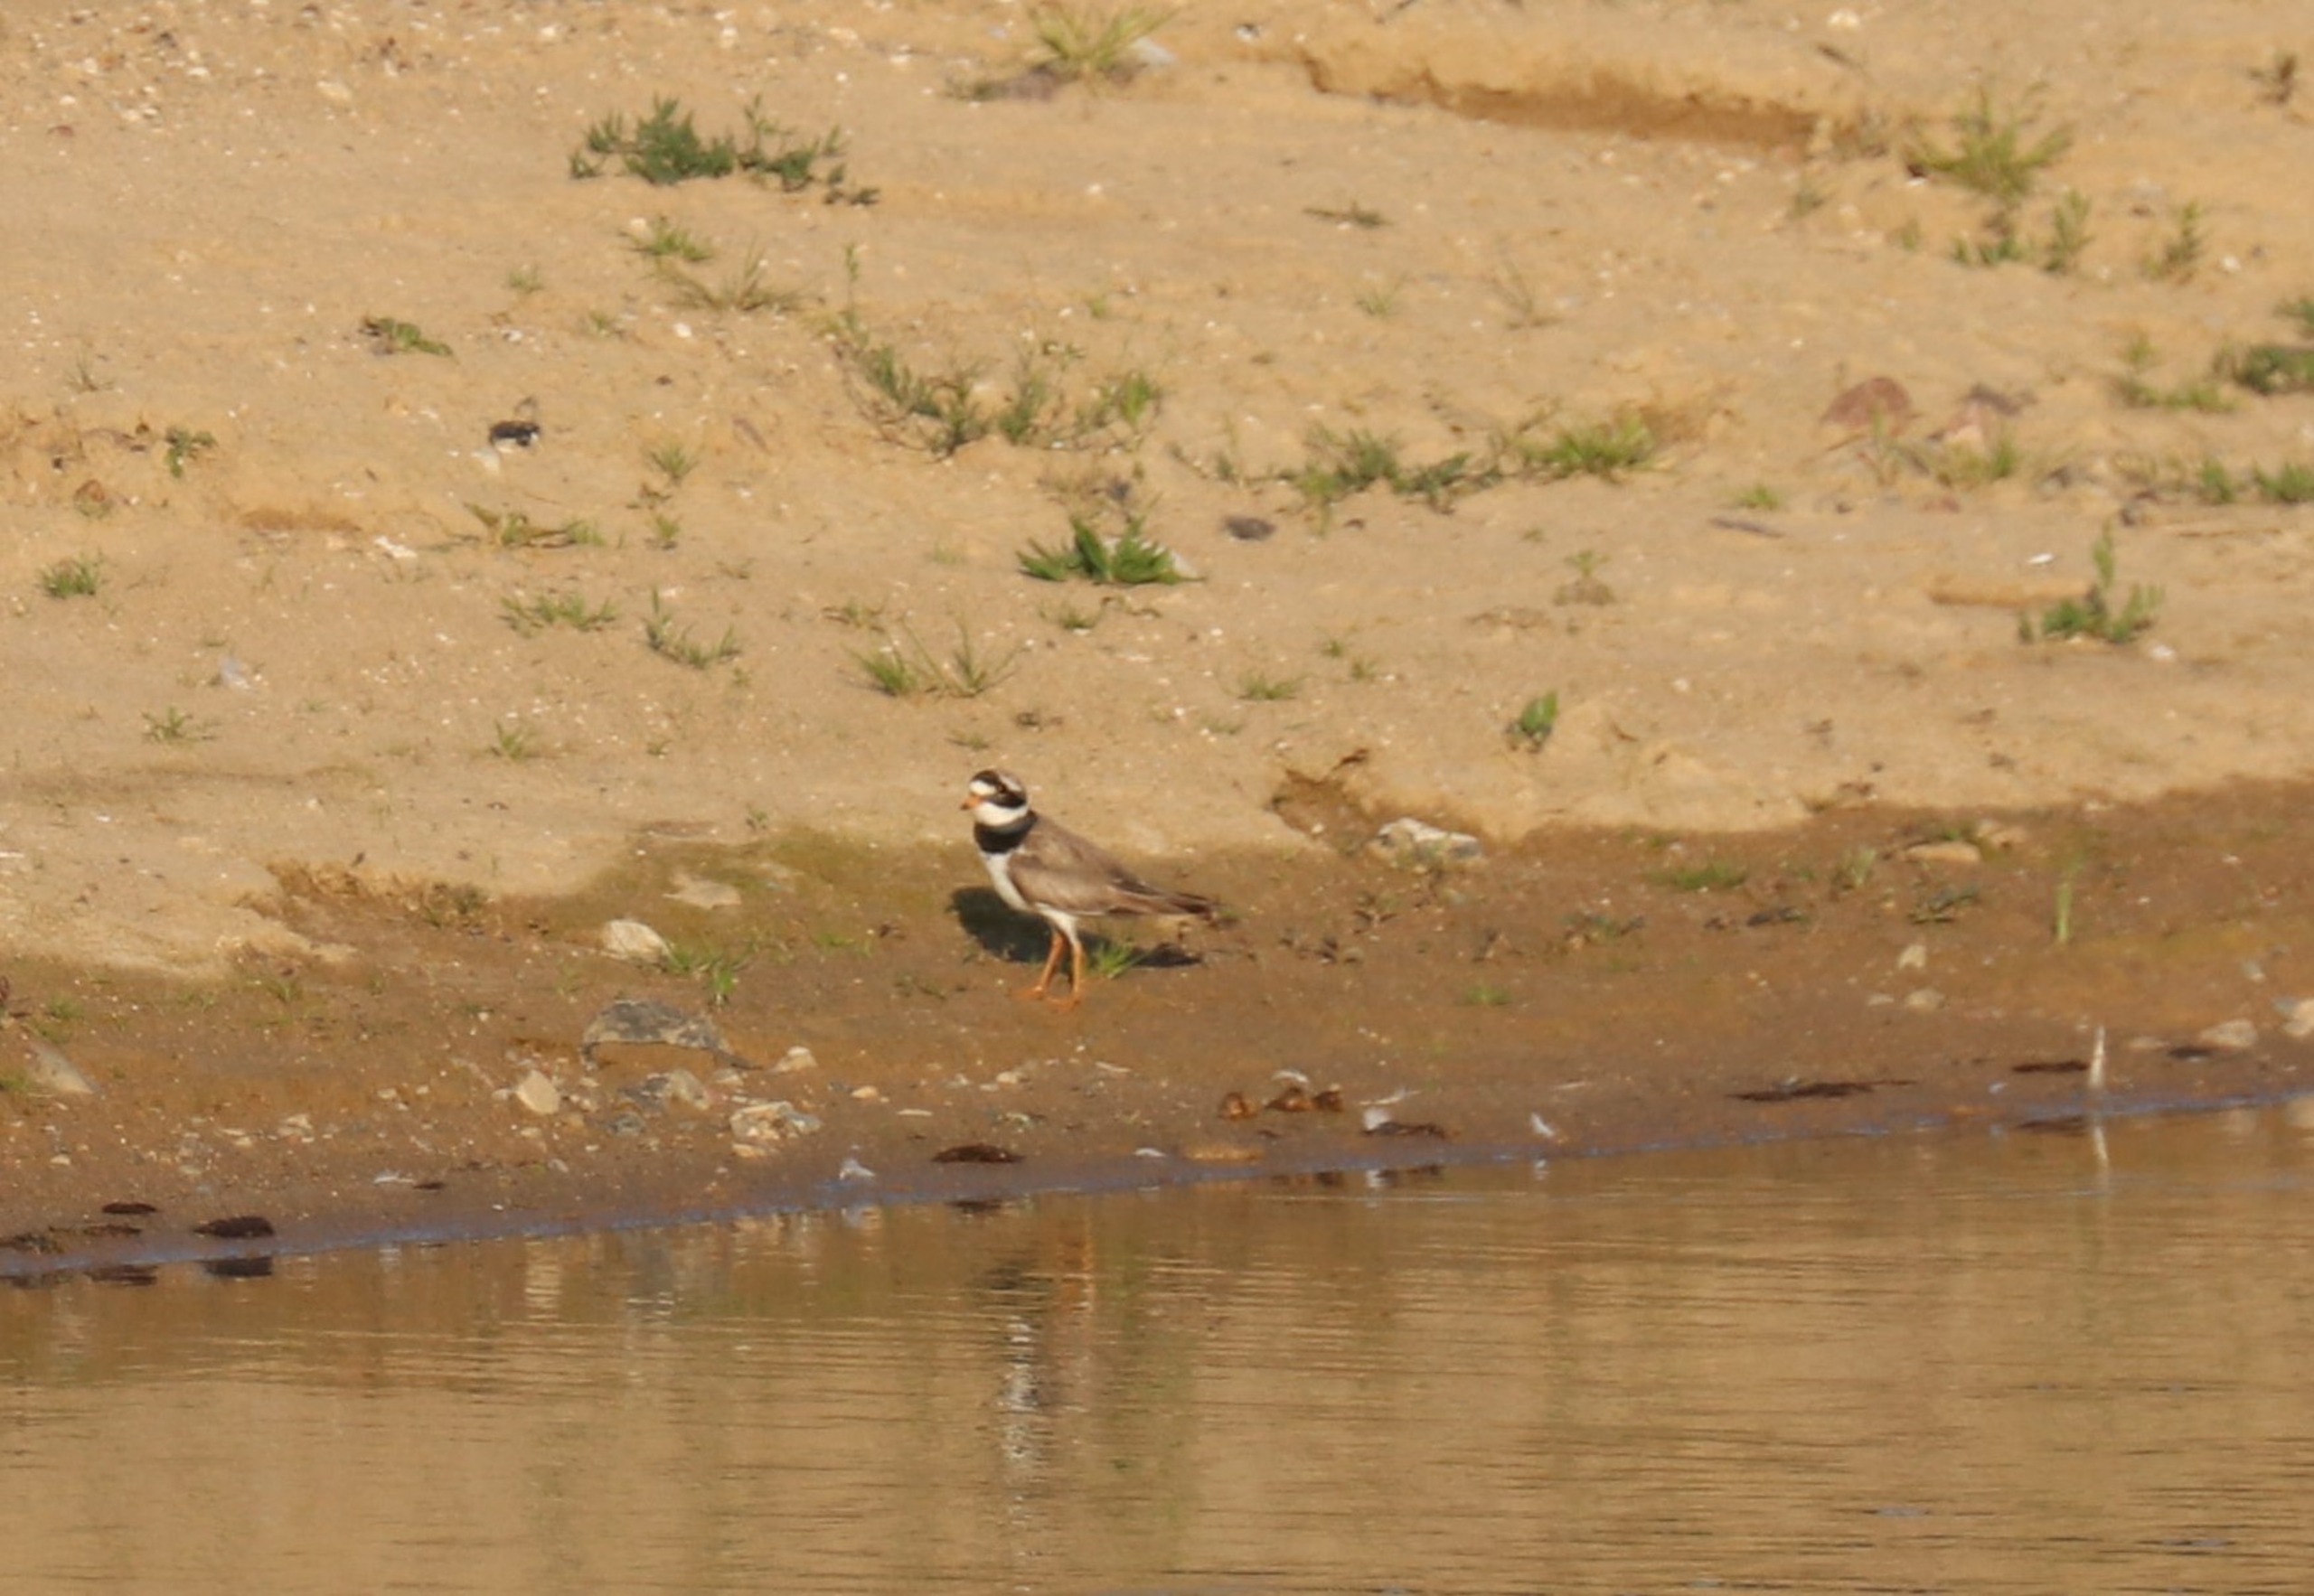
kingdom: Animalia
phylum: Chordata
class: Aves
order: Charadriiformes
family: Charadriidae
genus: Charadrius
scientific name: Charadrius hiaticula
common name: Stor præstekrave
